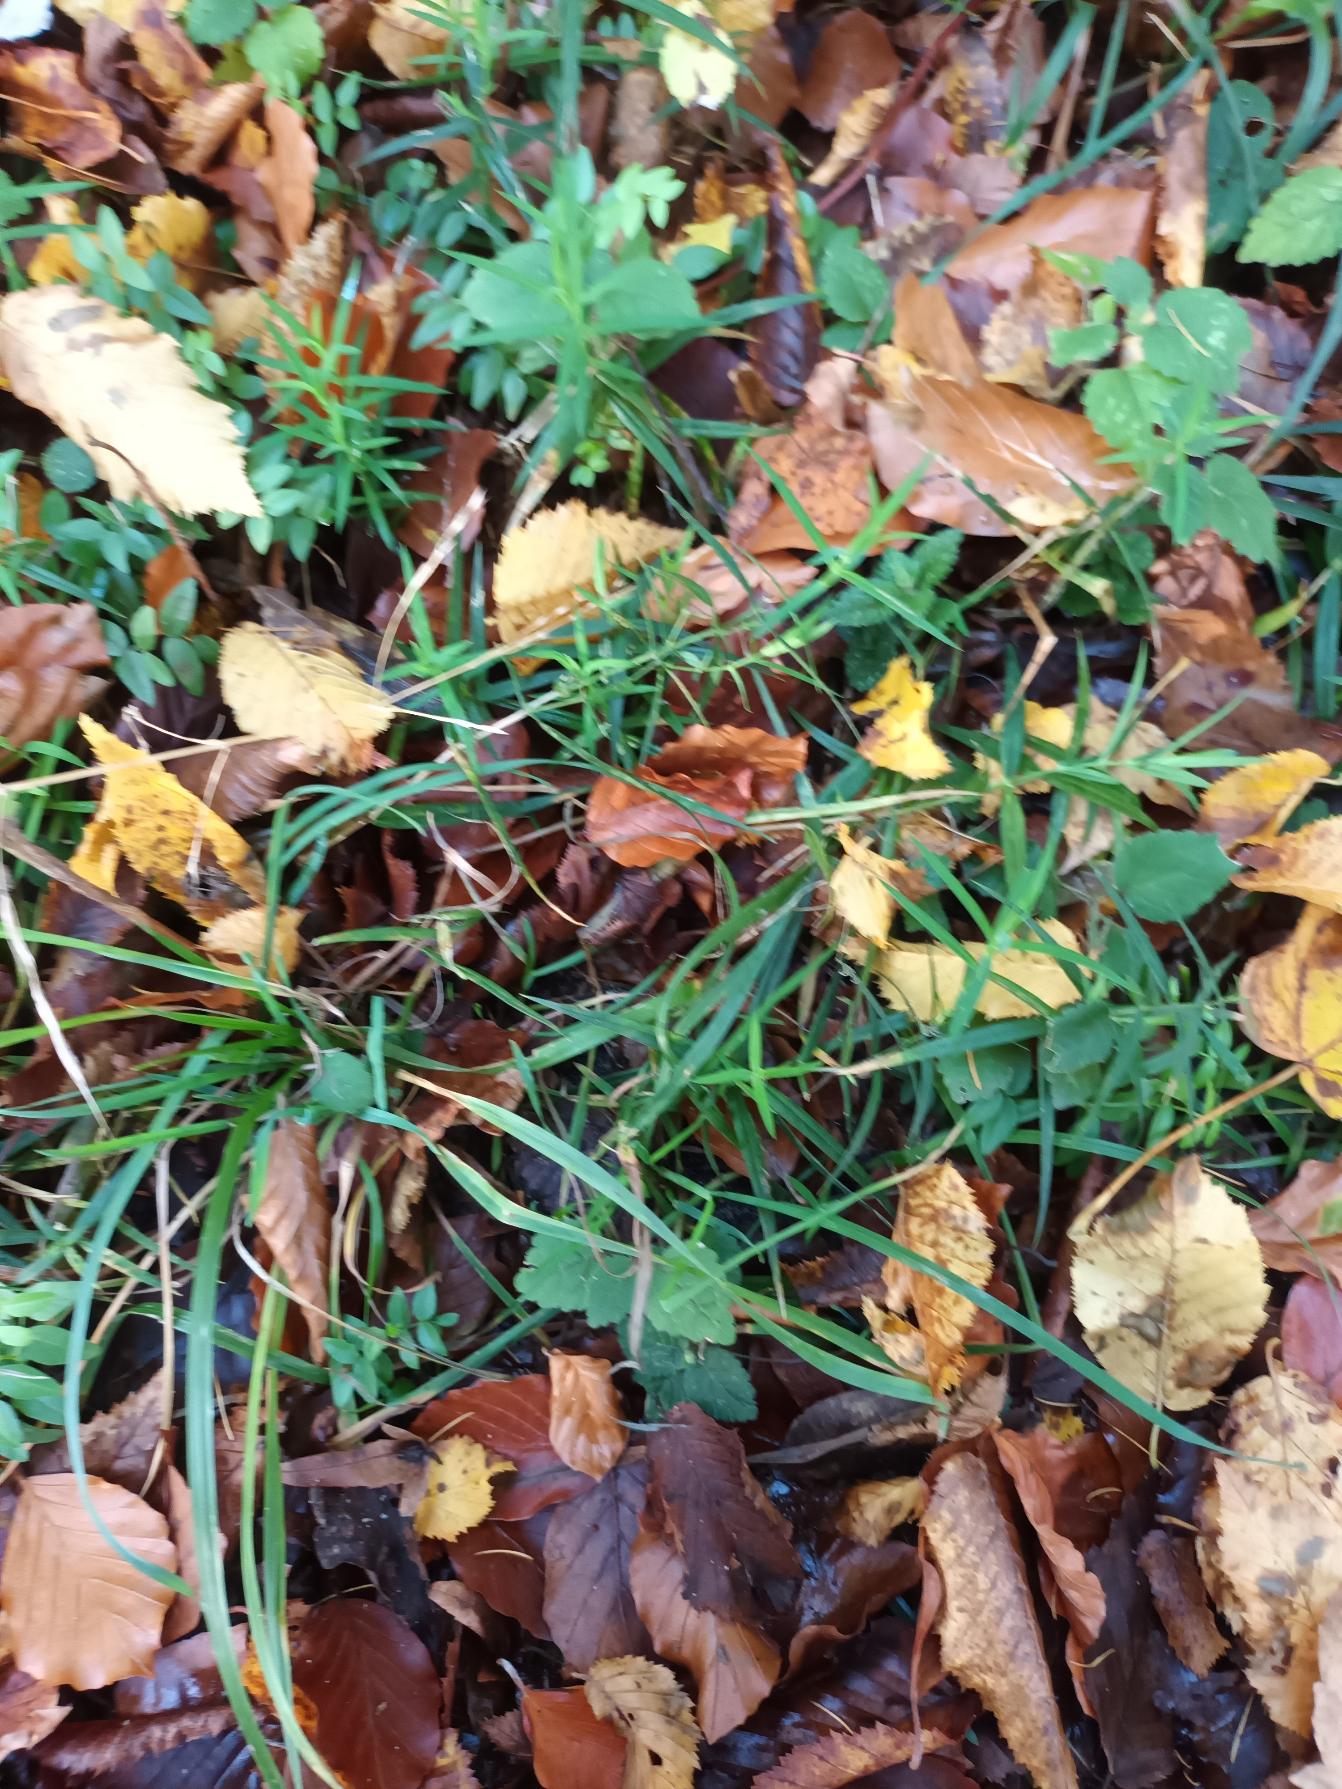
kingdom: Plantae
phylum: Tracheophyta
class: Magnoliopsida
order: Caryophyllales
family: Caryophyllaceae
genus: Rabelera
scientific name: Rabelera holostea
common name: Stor fladstjerne
